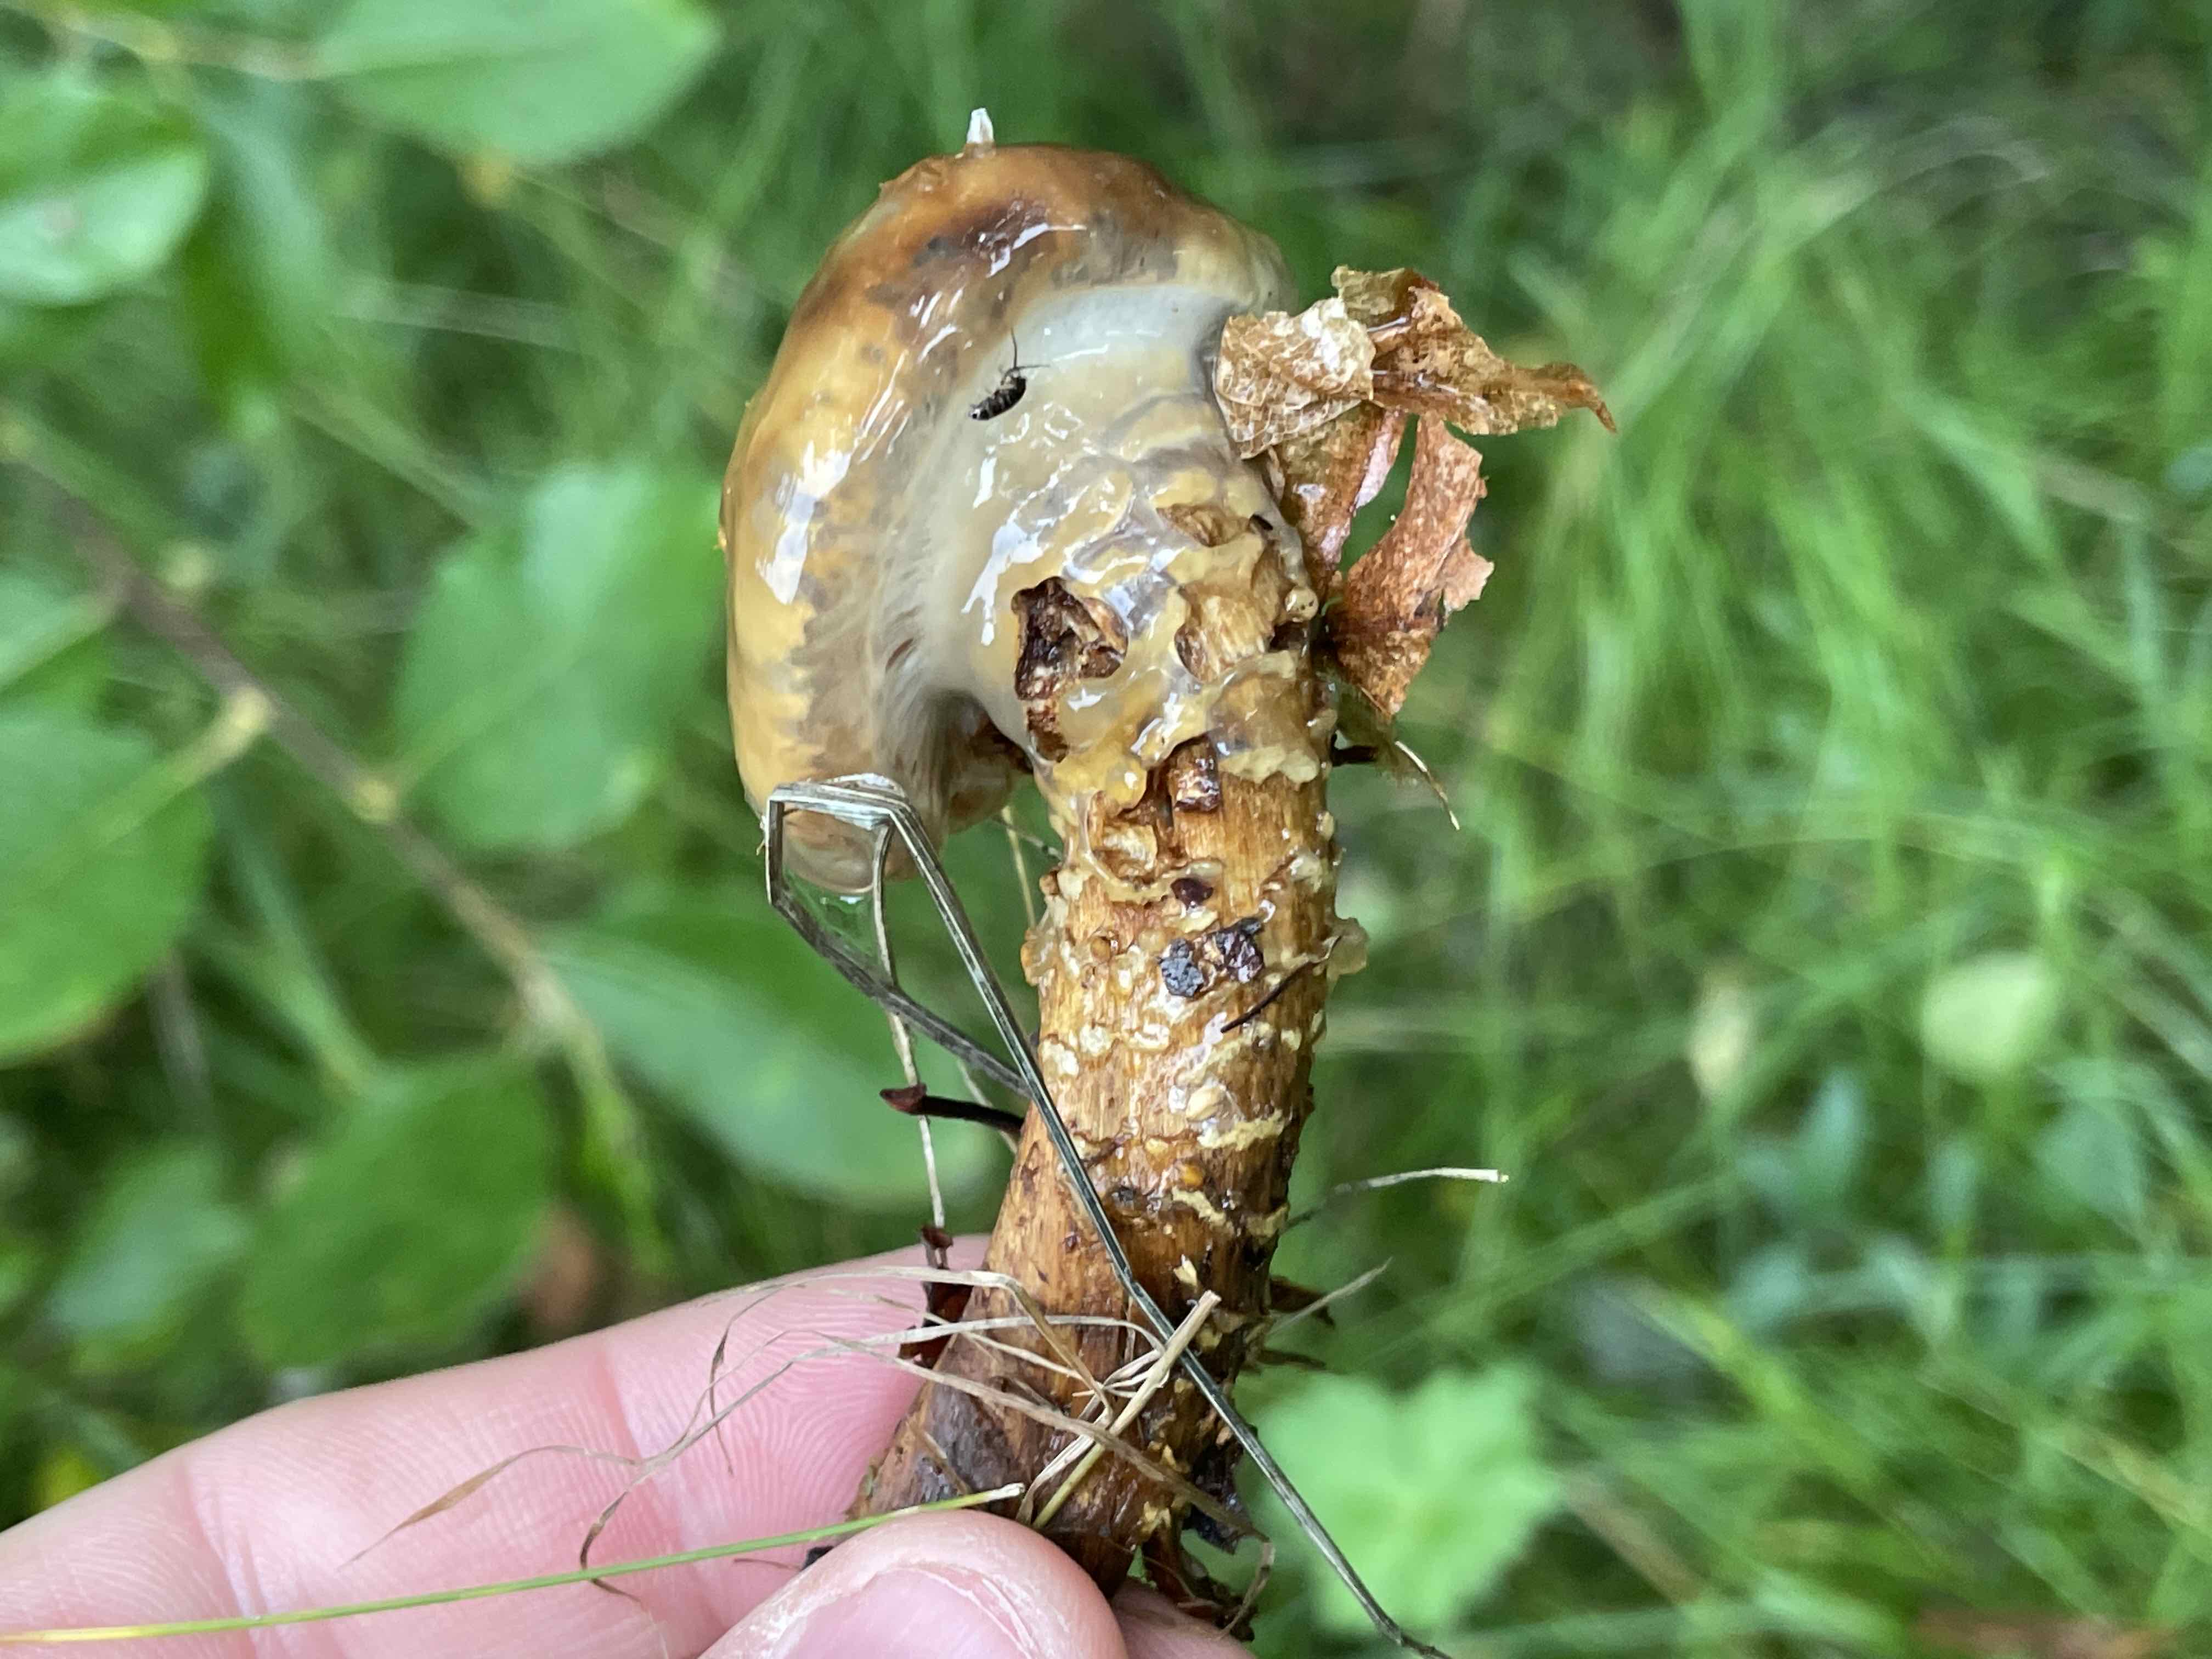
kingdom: Fungi
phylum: Basidiomycota
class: Agaricomycetes
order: Agaricales
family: Cortinariaceae
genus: Cortinarius
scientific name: Cortinarius trivialis
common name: brunslimet slørhat
